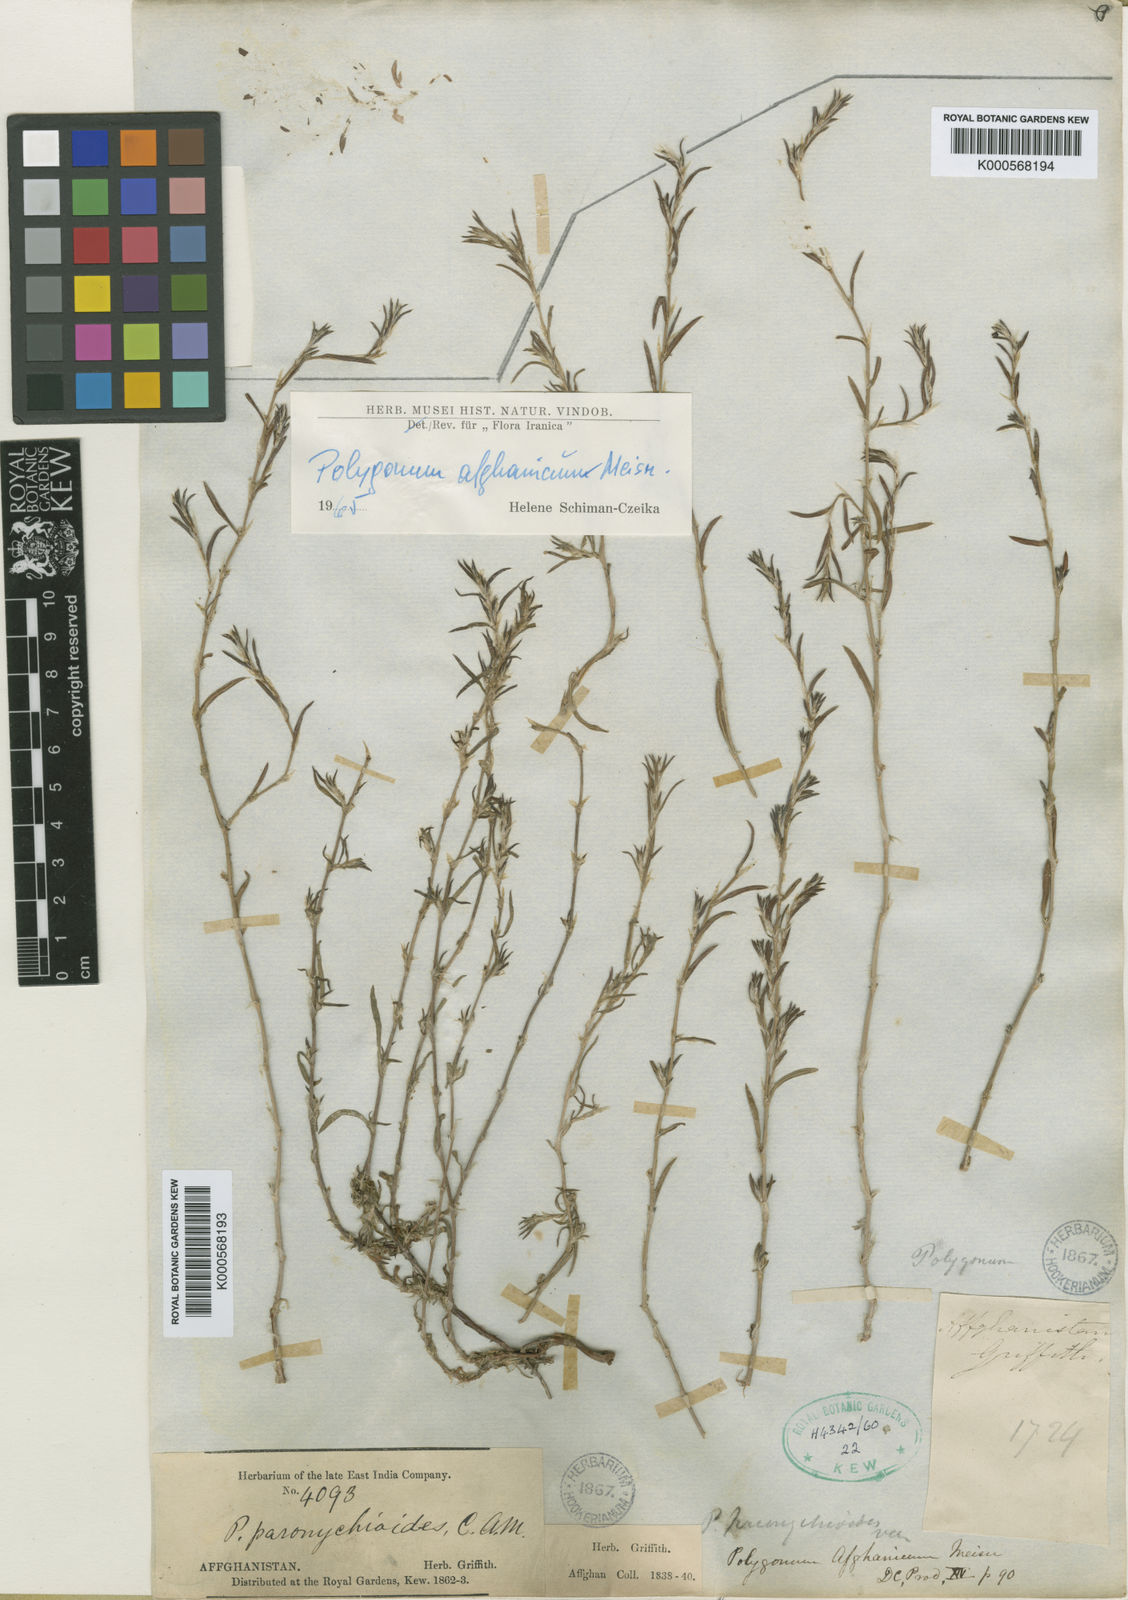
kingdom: Plantae
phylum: Tracheophyta
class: Magnoliopsida
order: Caryophyllales
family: Polygonaceae
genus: Polygonum
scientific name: Polygonum afghanicum
